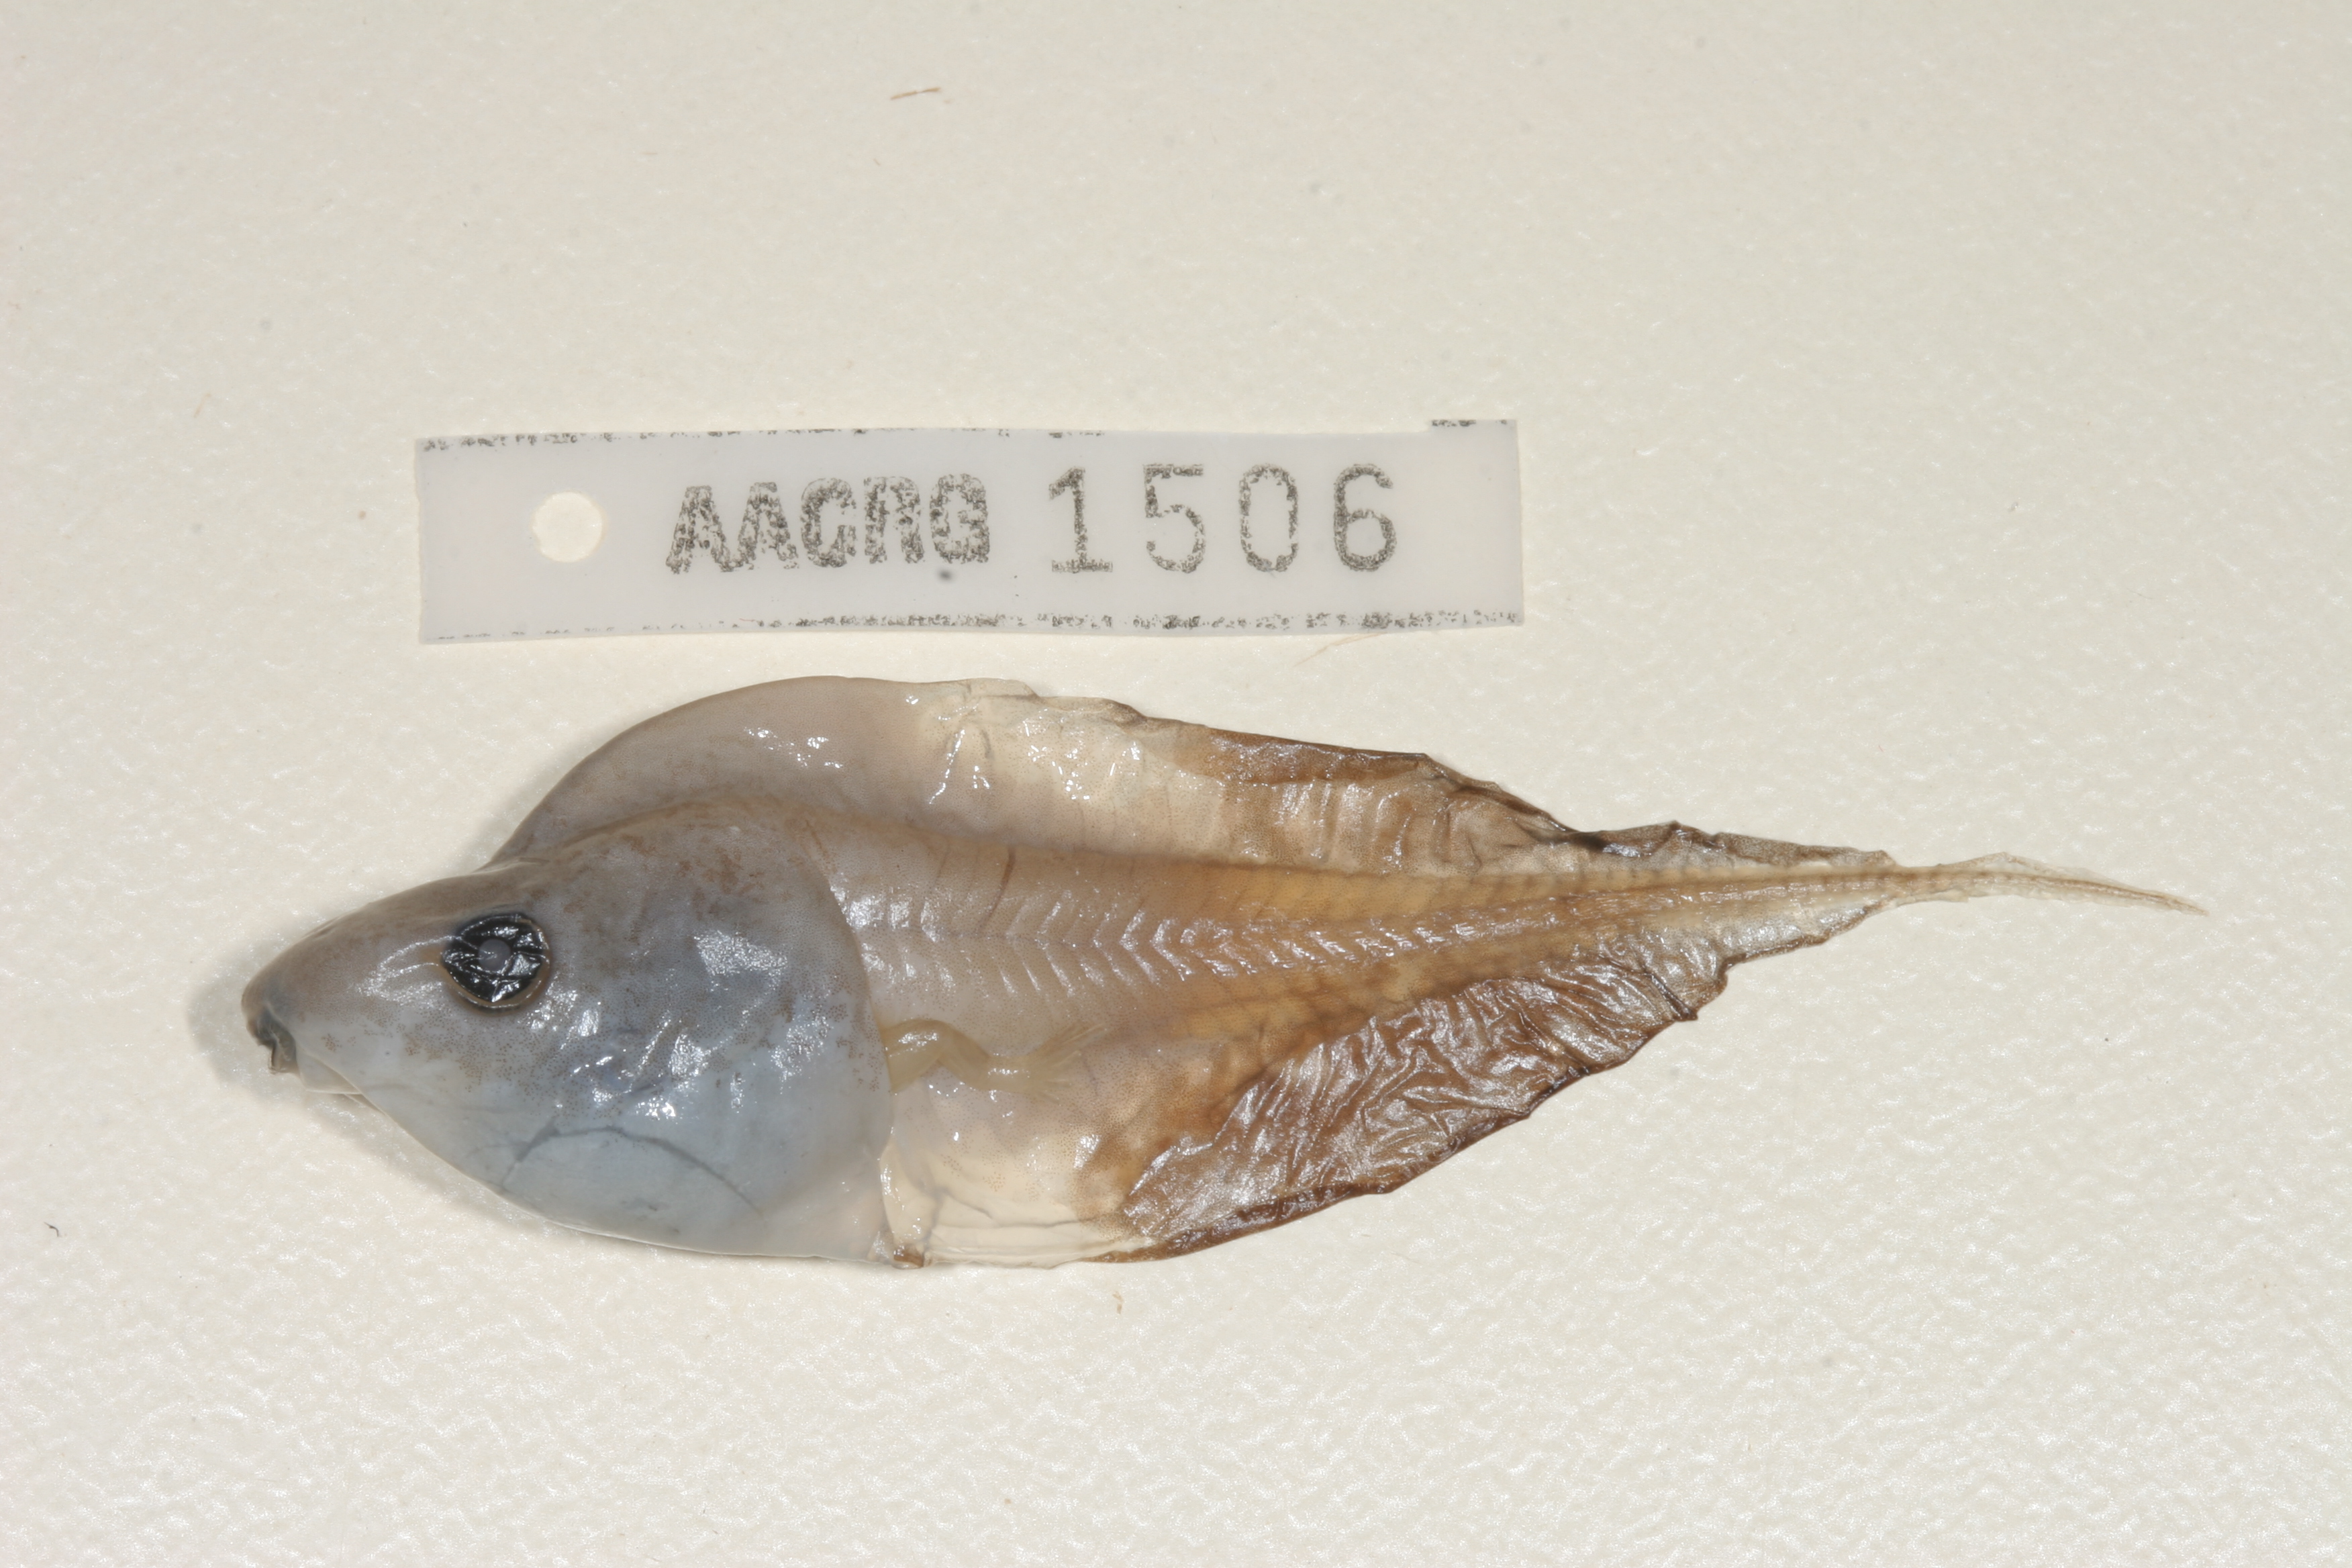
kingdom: Animalia
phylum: Chordata
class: Amphibia
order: Anura
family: Hyperoliidae
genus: Kassina
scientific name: Kassina senegalensis
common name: Senegal land frog
